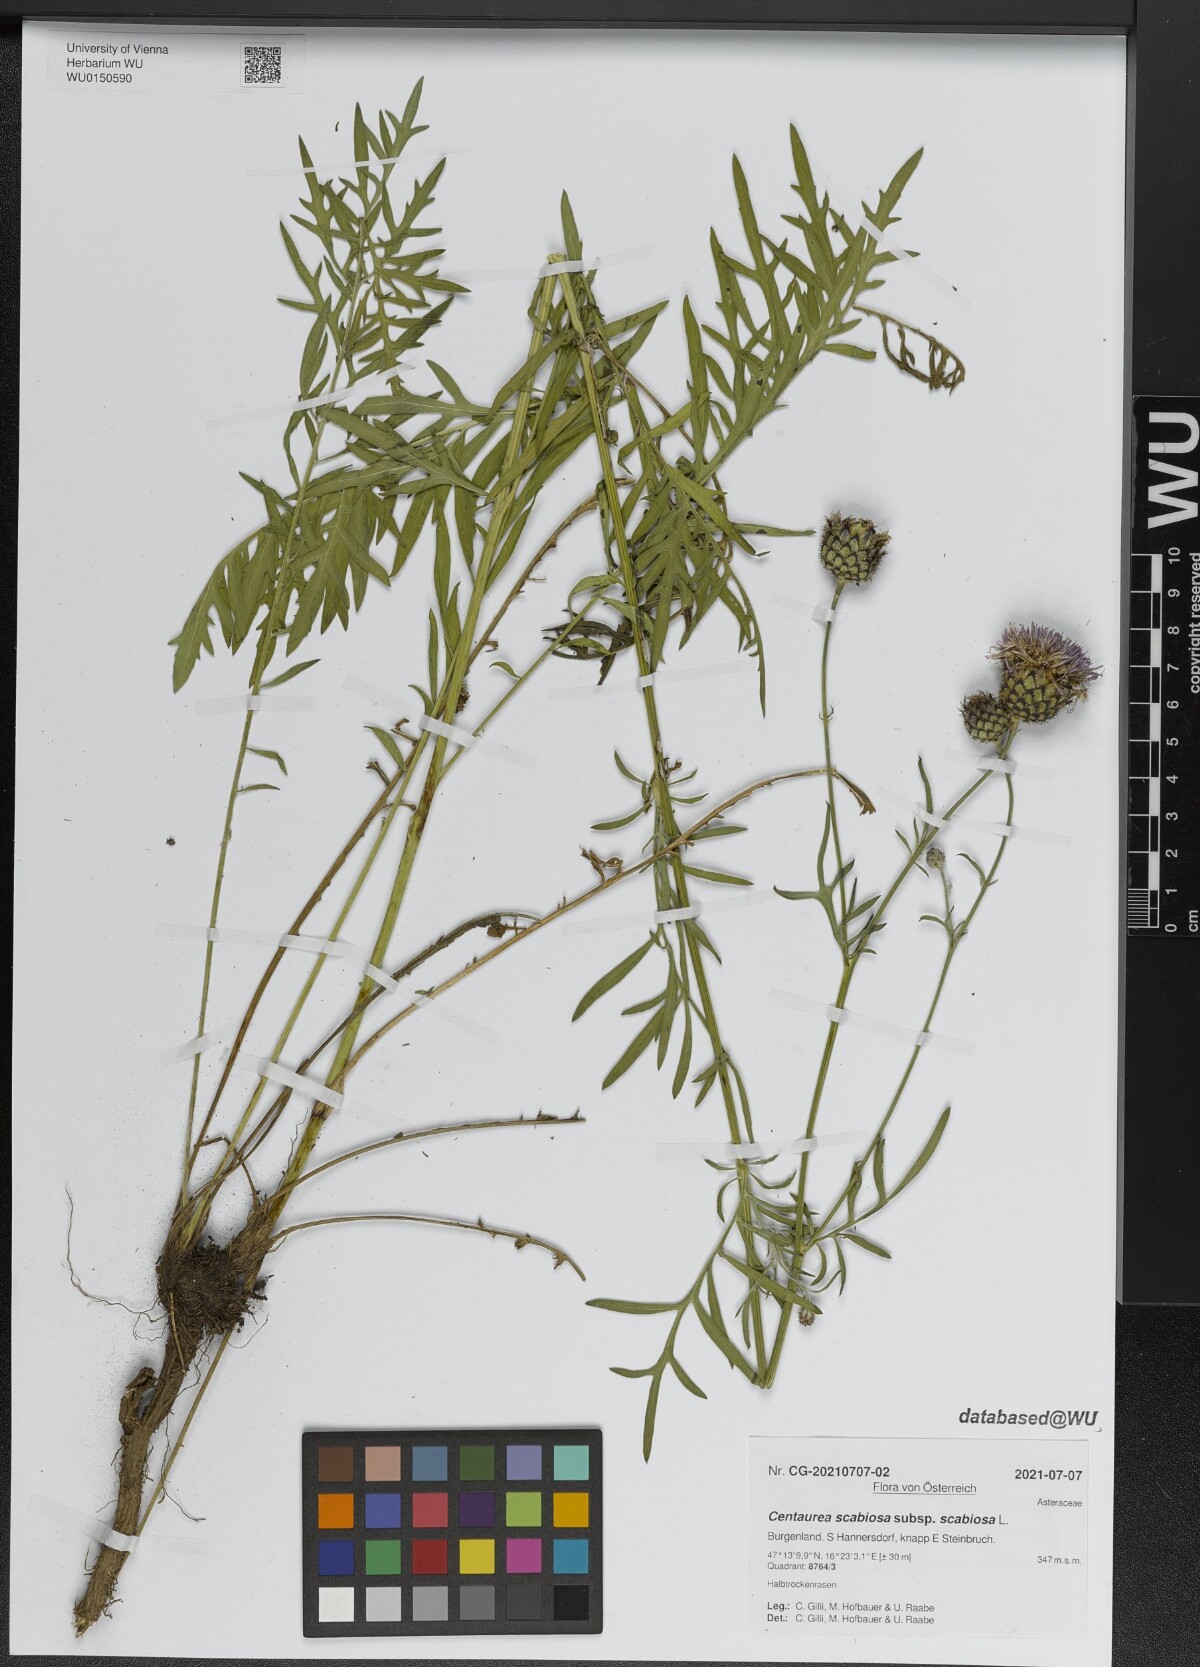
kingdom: Plantae
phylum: Tracheophyta
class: Magnoliopsida
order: Asterales
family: Asteraceae
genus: Centaurea
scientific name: Centaurea scabiosa
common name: Greater knapweed
